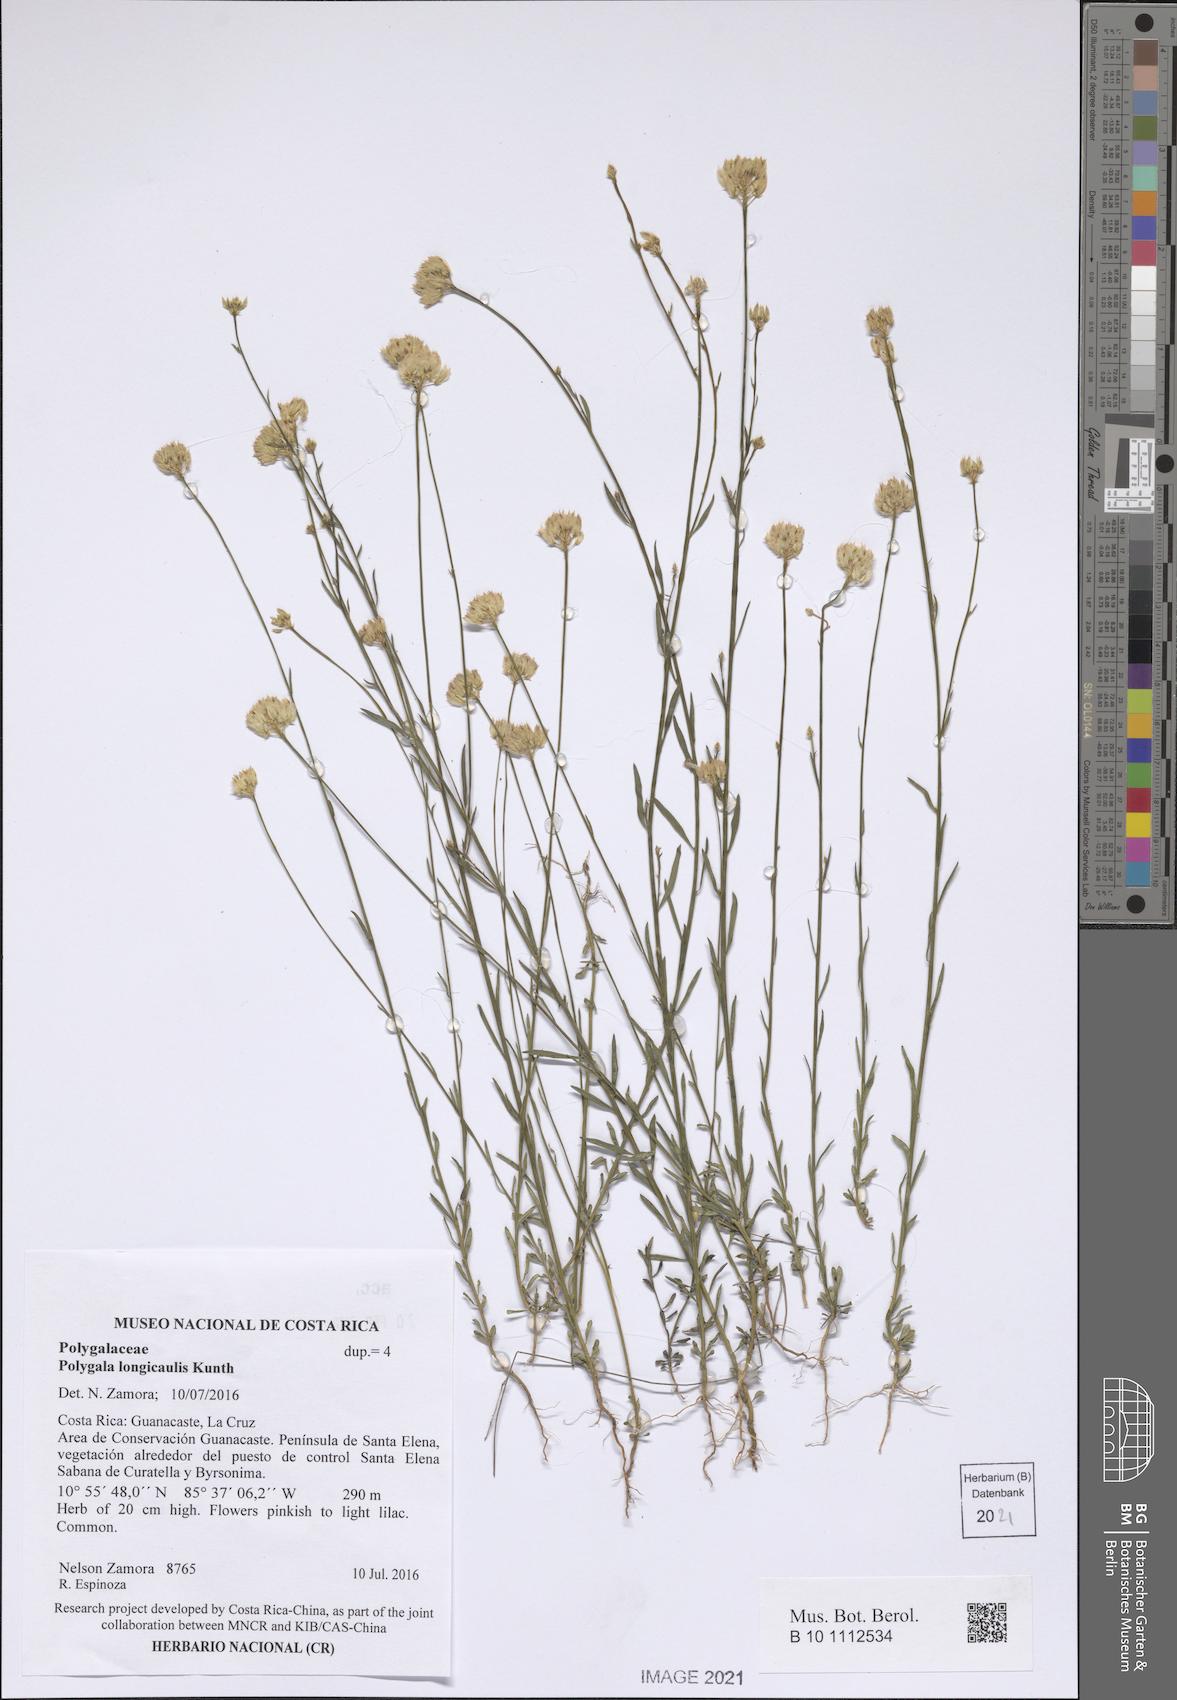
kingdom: Plantae
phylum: Tracheophyta
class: Magnoliopsida
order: Fabales
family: Polygalaceae
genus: Polygala
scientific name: Polygala longicaulis
